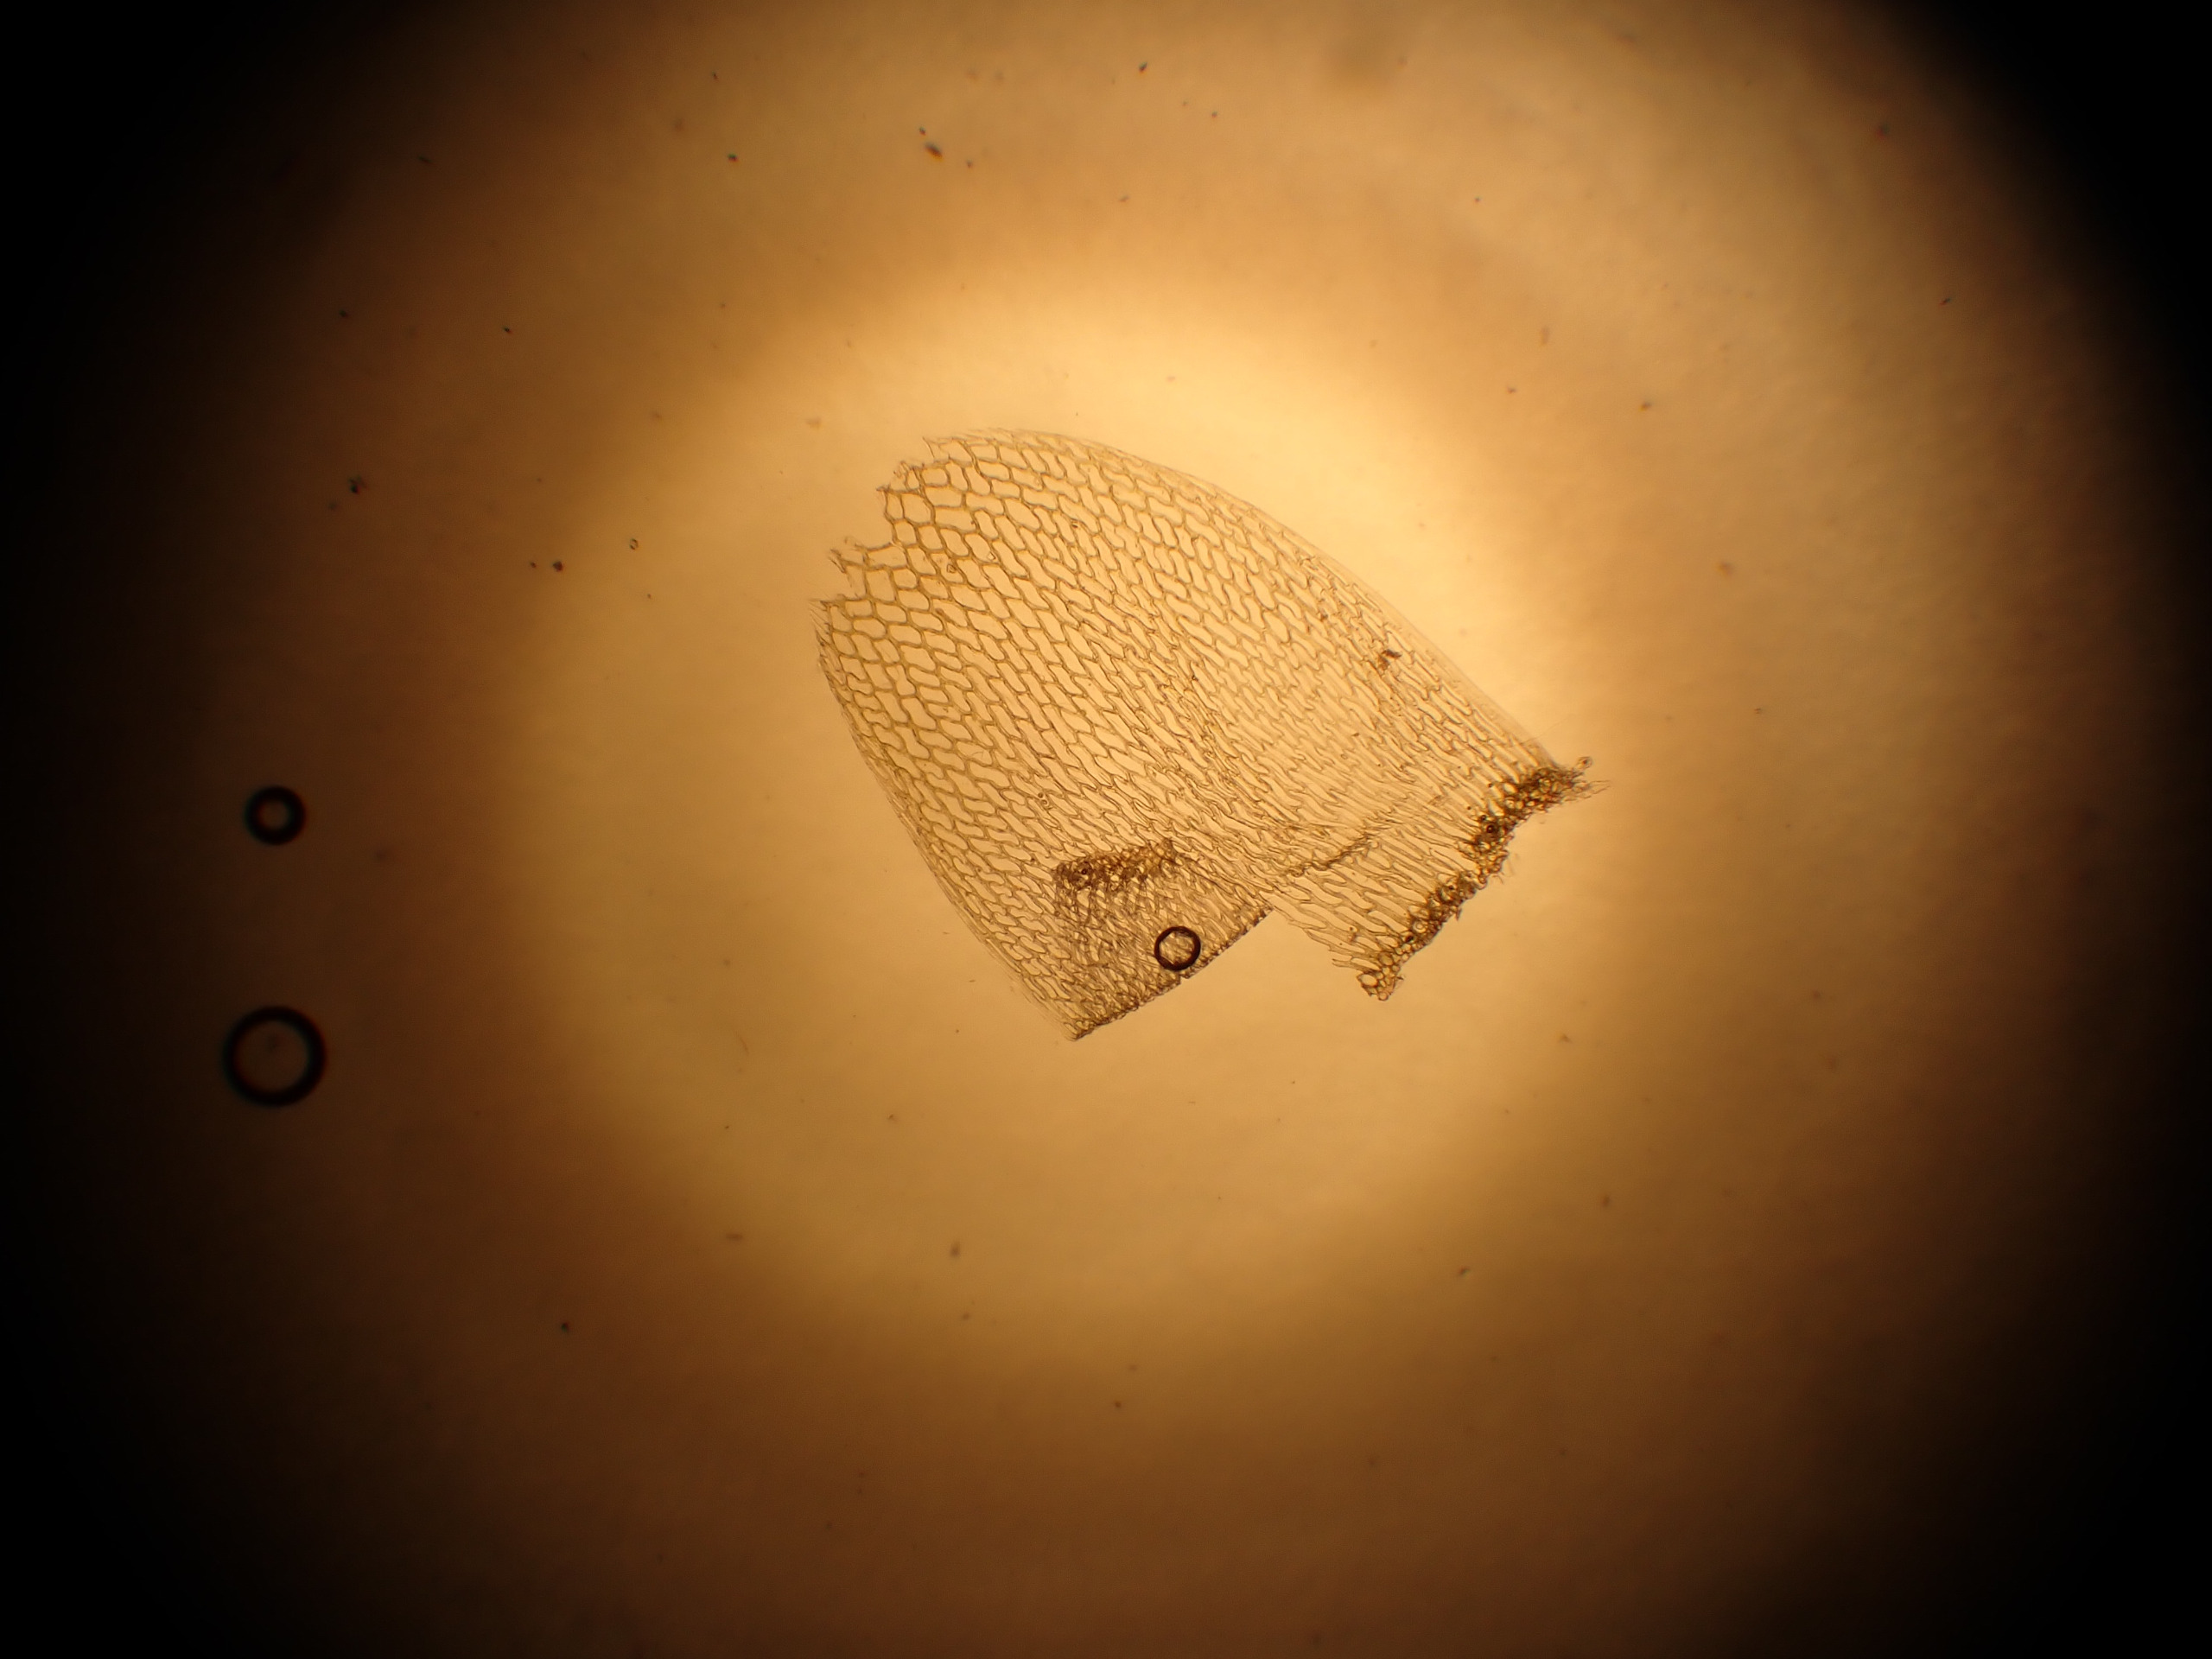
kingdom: Plantae
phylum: Bryophyta
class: Sphagnopsida
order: Sphagnales
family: Sphagnaceae
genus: Sphagnum
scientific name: Sphagnum teres
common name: Trindgrenet tørvemos
